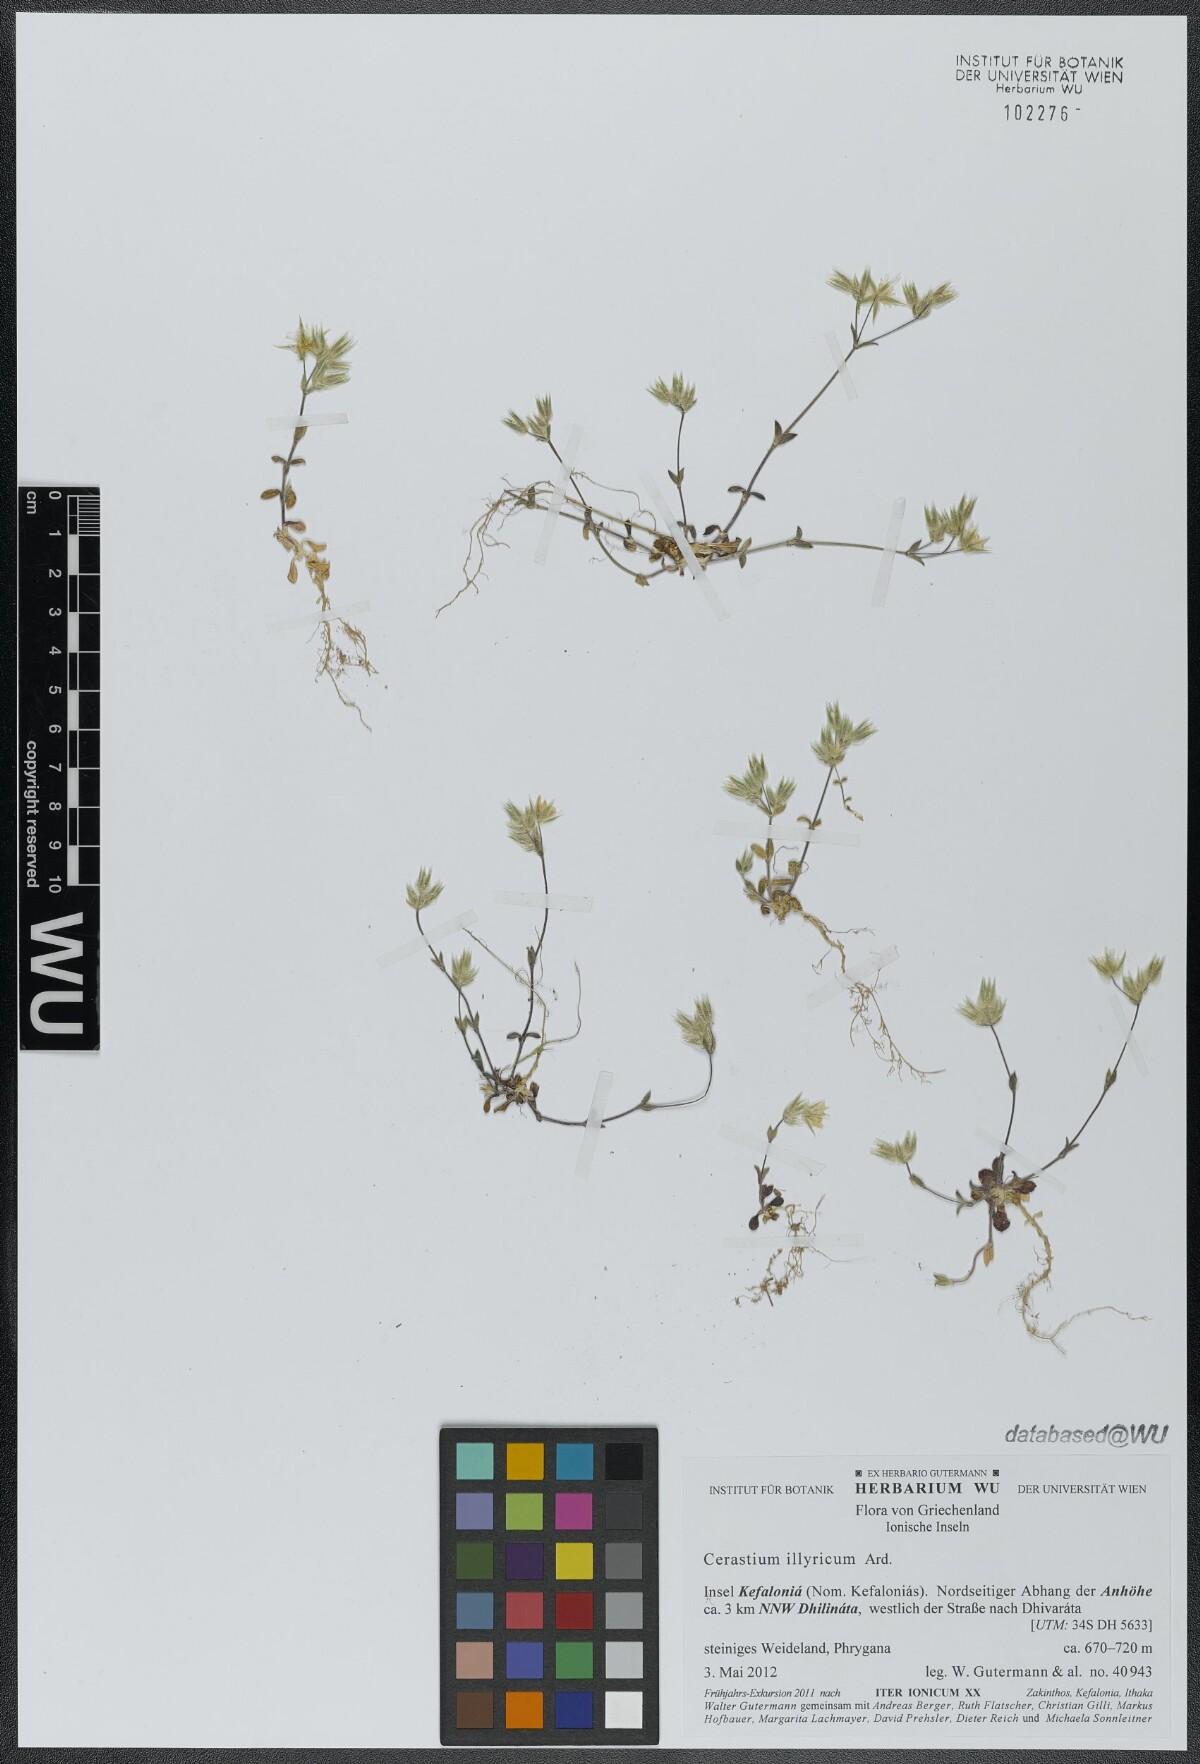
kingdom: Plantae
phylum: Tracheophyta
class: Magnoliopsida
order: Caryophyllales
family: Caryophyllaceae
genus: Cerastium
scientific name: Cerastium illyricum
